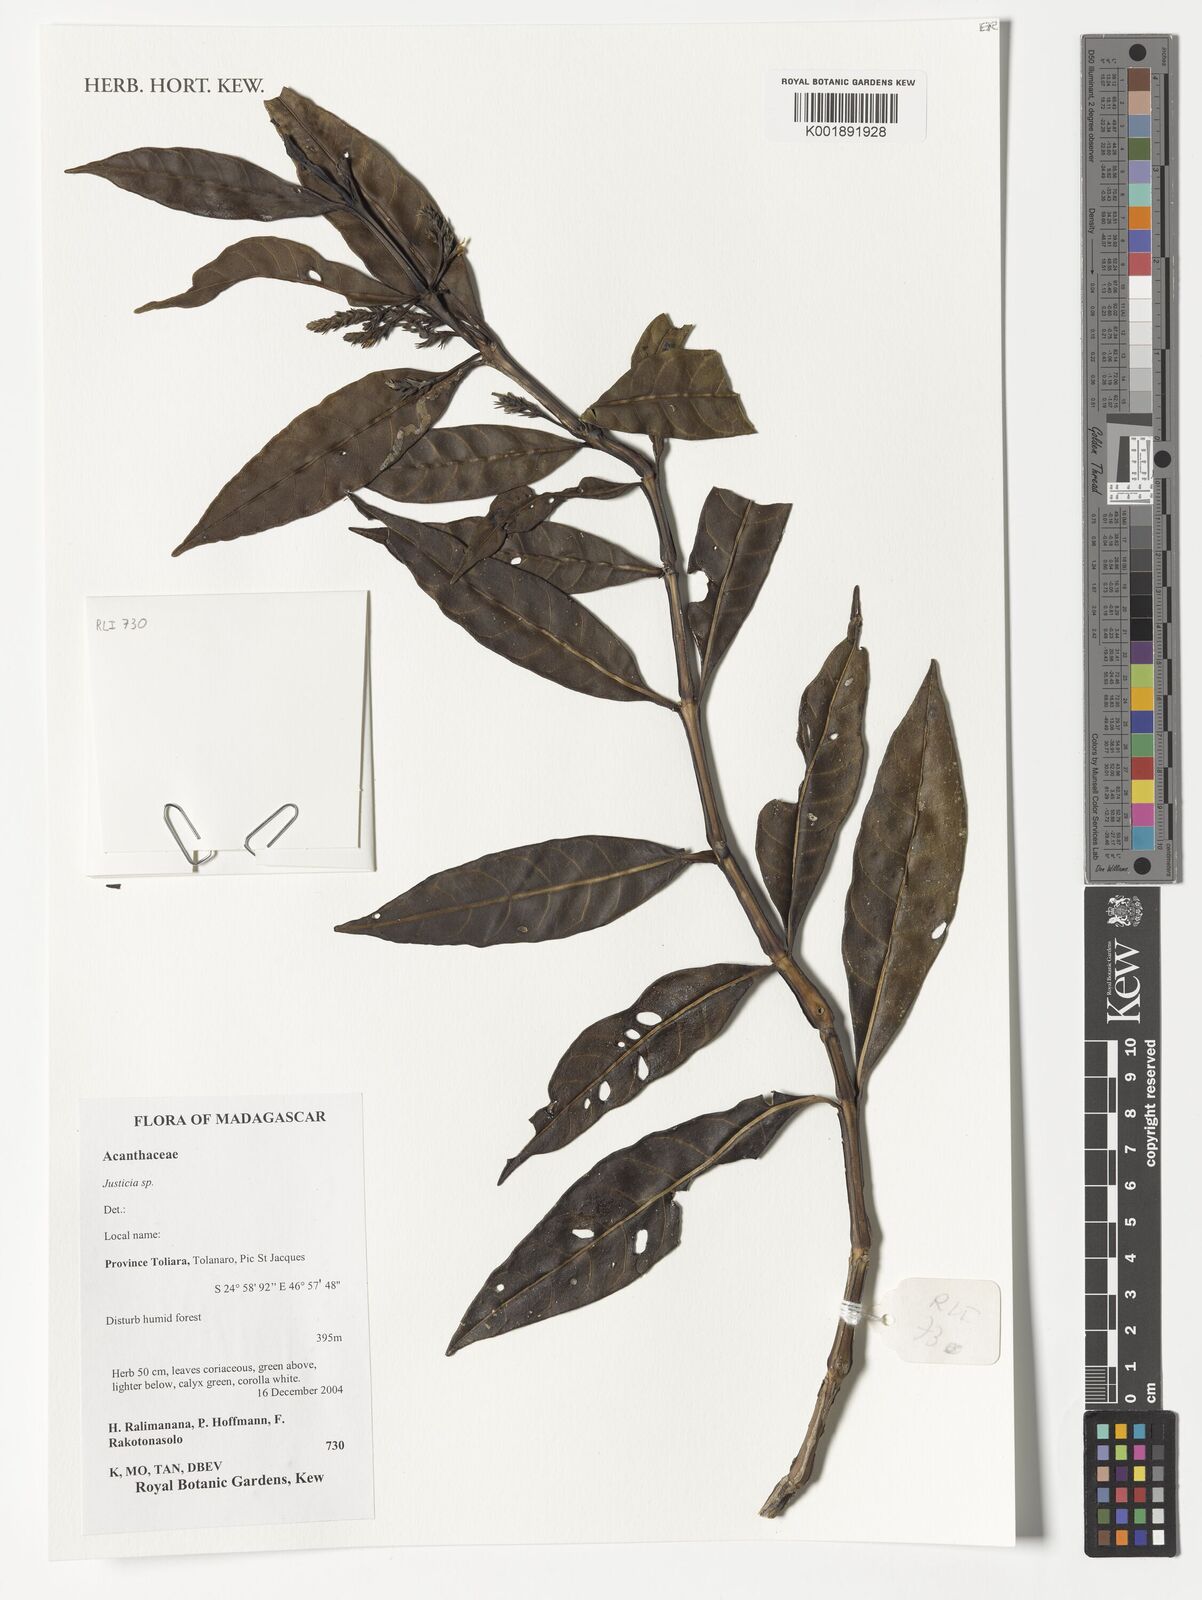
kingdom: Plantae
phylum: Tracheophyta
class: Magnoliopsida
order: Lamiales
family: Acanthaceae
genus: Justicia
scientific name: Justicia
